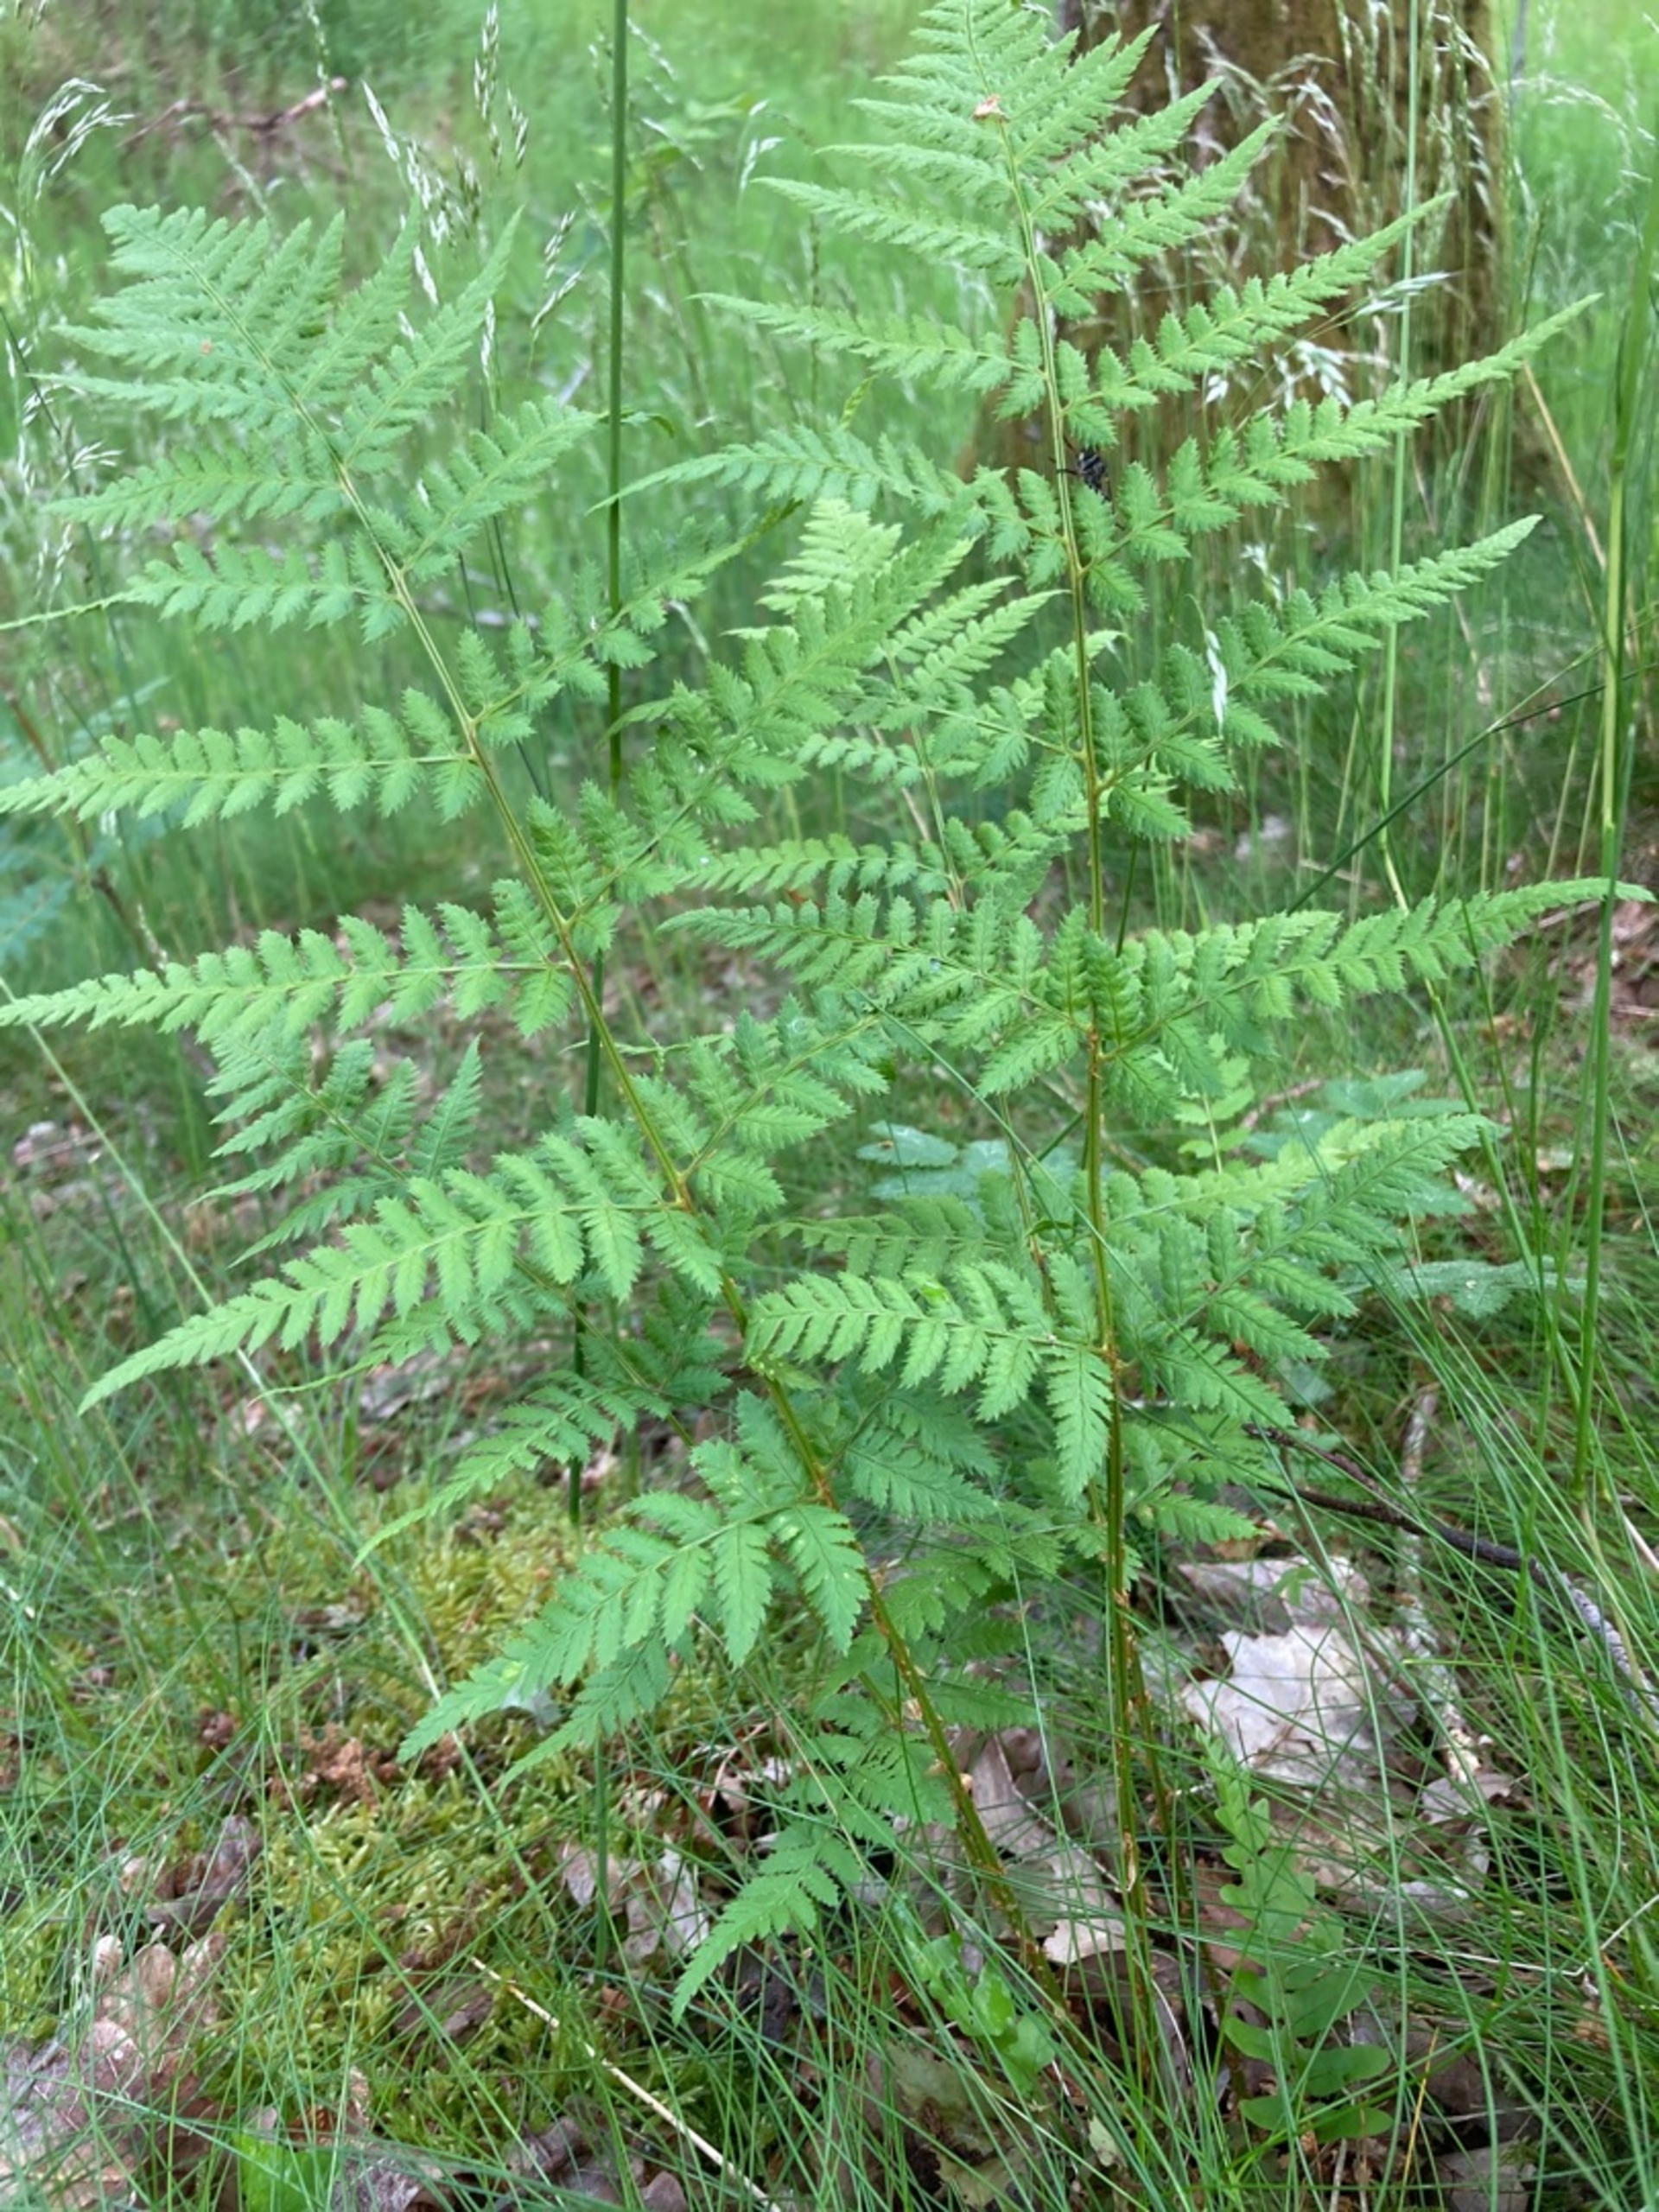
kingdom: Plantae
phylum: Tracheophyta
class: Polypodiopsida
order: Polypodiales
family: Dryopteridaceae
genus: Dryopteris
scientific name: Dryopteris carthusiana
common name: Smalbladet mangeløv
